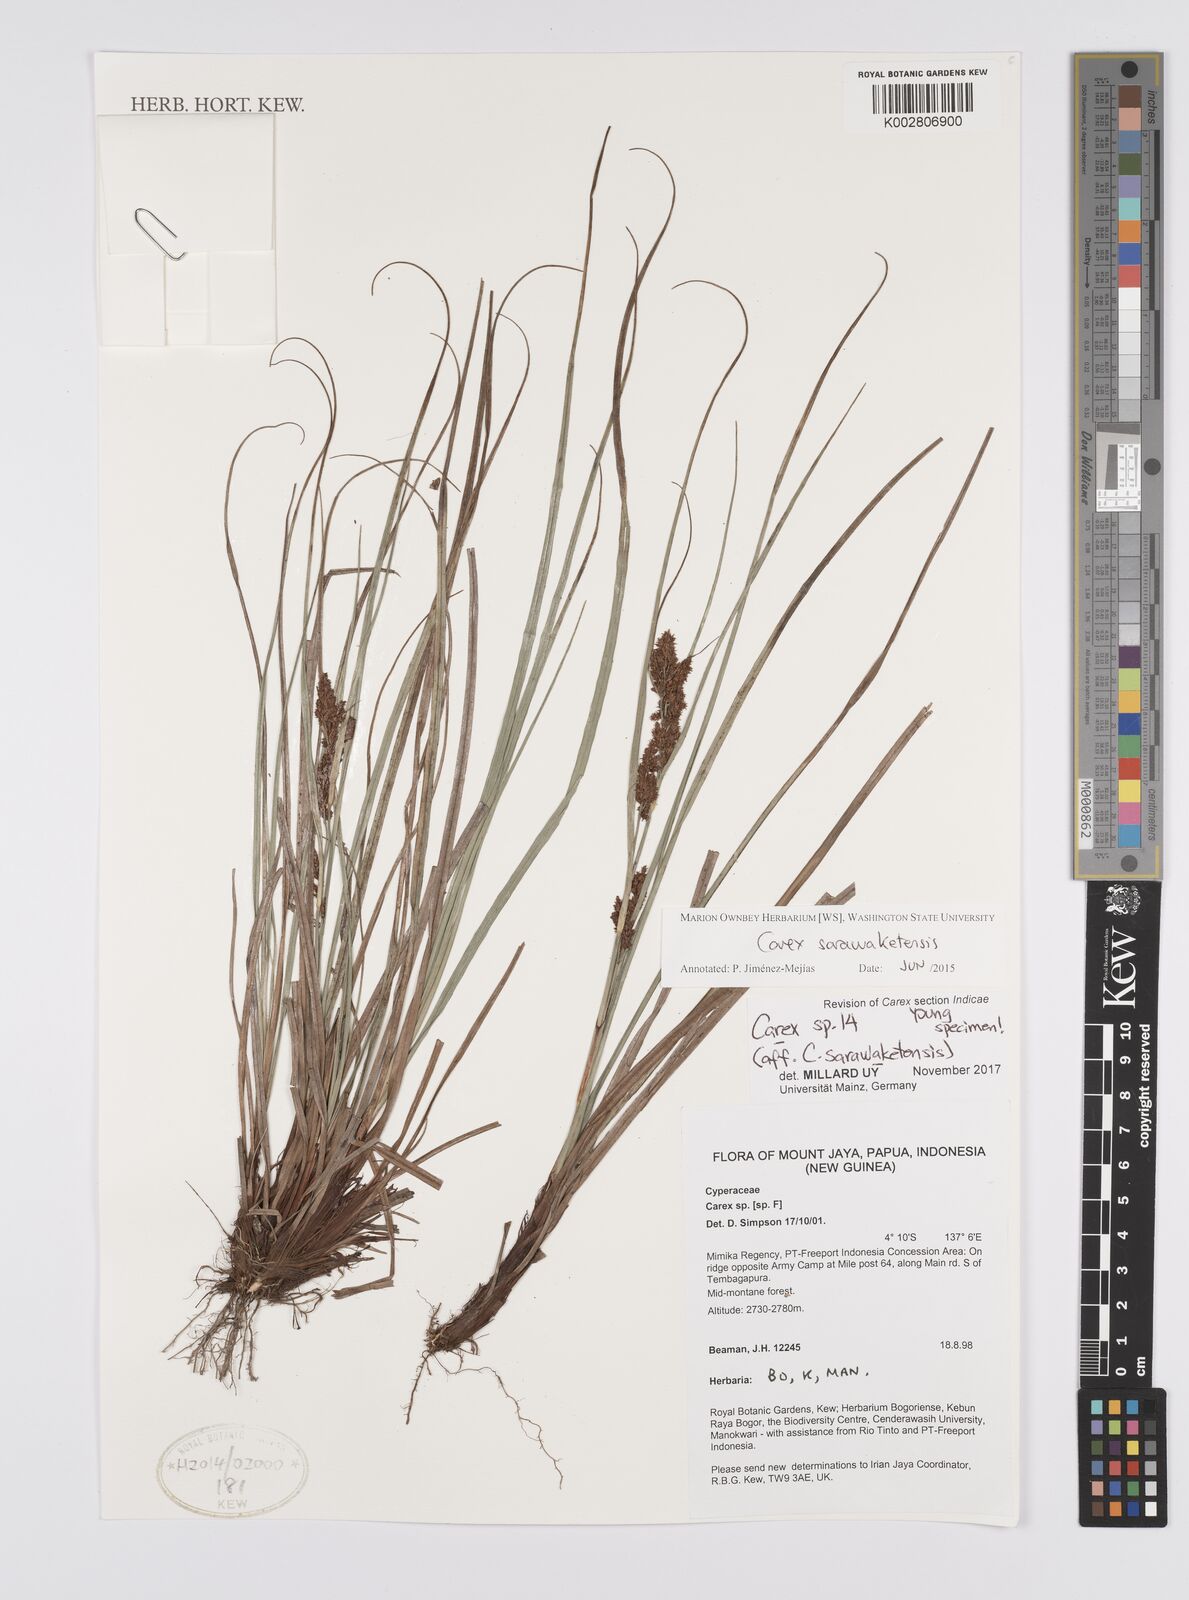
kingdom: Plantae
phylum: Tracheophyta
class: Liliopsida
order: Poales
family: Cyperaceae
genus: Carex
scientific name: Carex sarawaketensis
